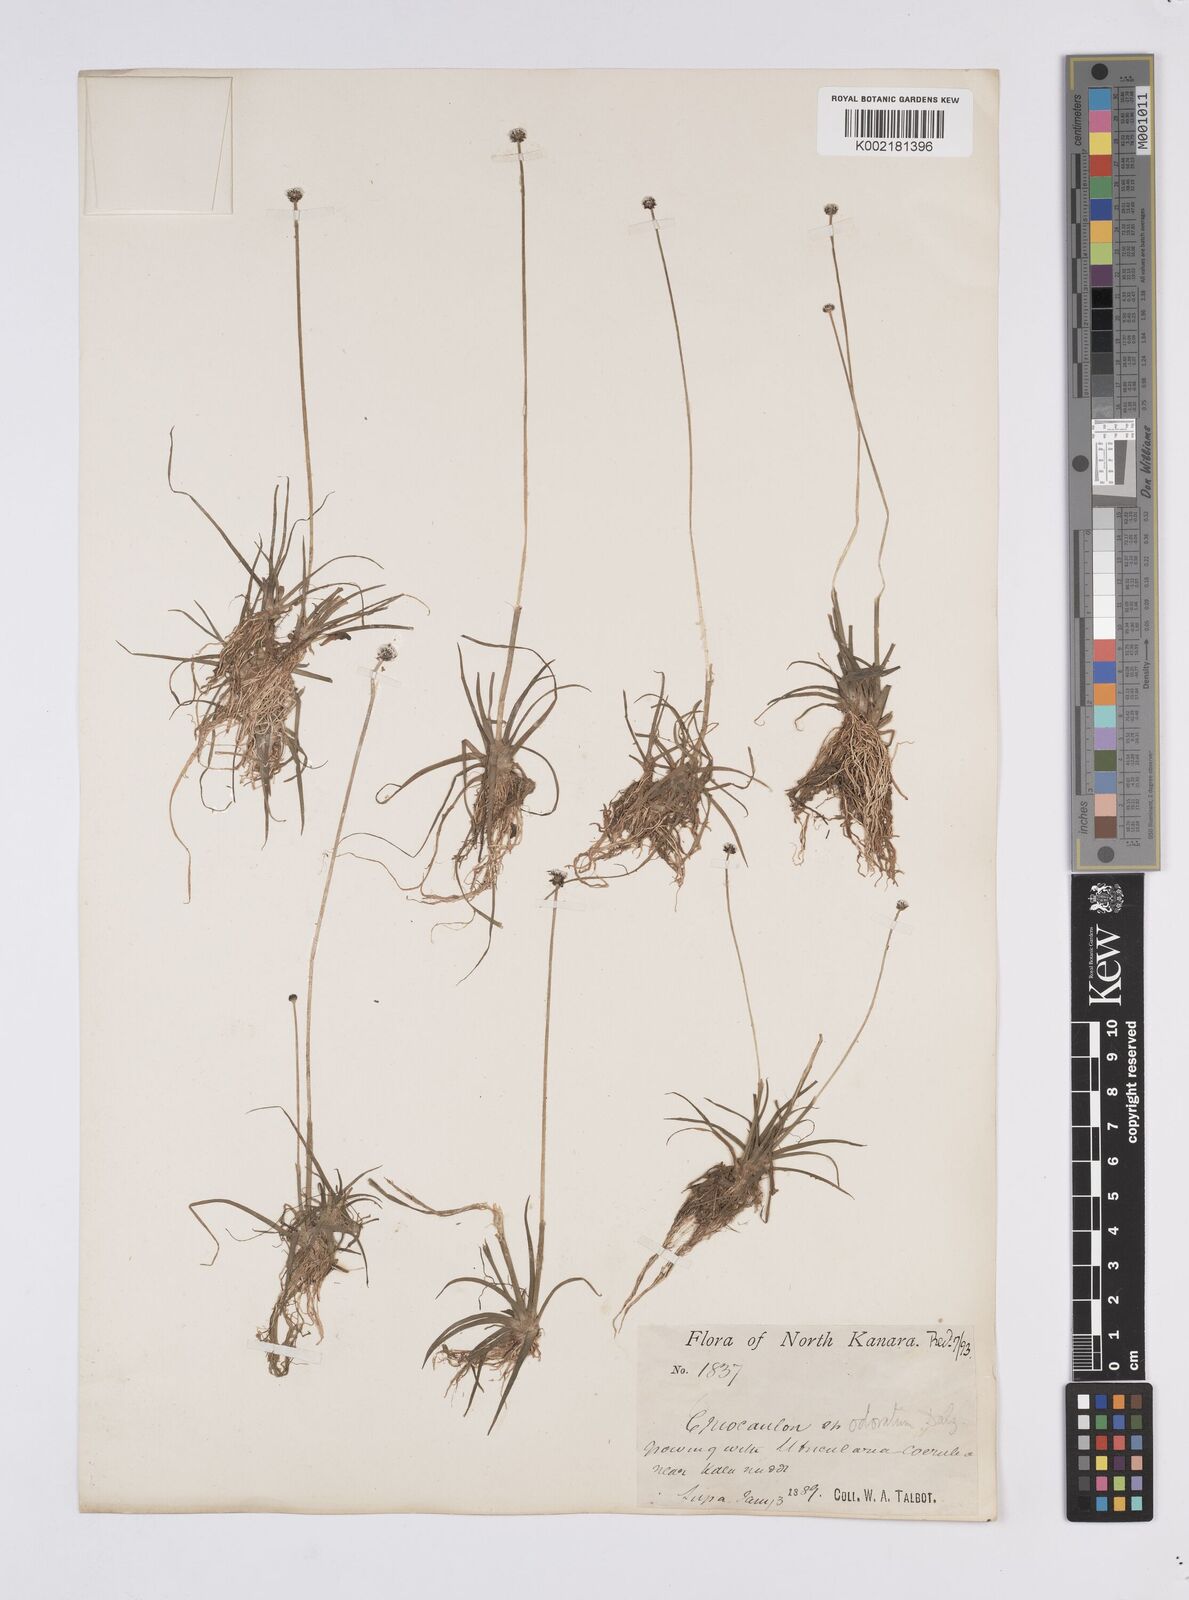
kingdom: Plantae
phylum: Tracheophyta
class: Liliopsida
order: Poales
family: Eriocaulaceae
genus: Eriocaulon
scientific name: Eriocaulon odoratum
